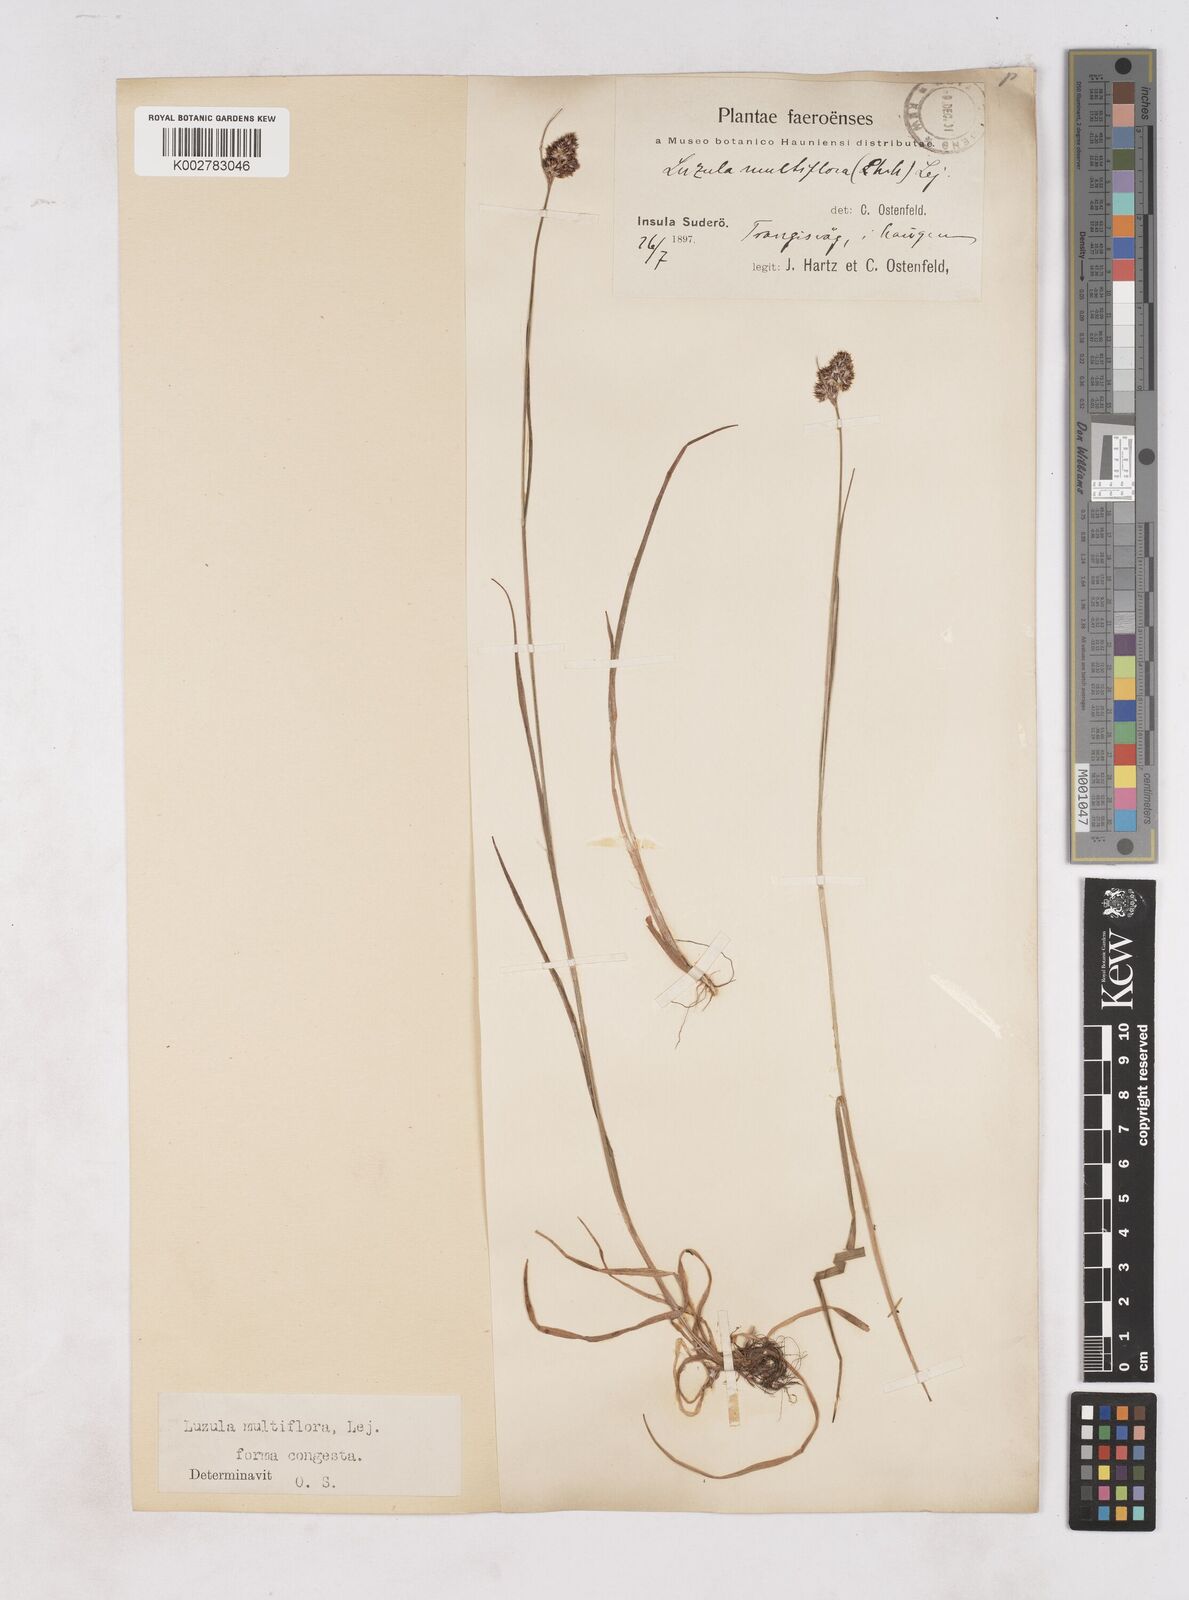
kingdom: Plantae
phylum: Tracheophyta
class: Liliopsida
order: Poales
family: Juncaceae
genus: Luzula
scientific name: Luzula pallescens
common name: Fen wood-rush
